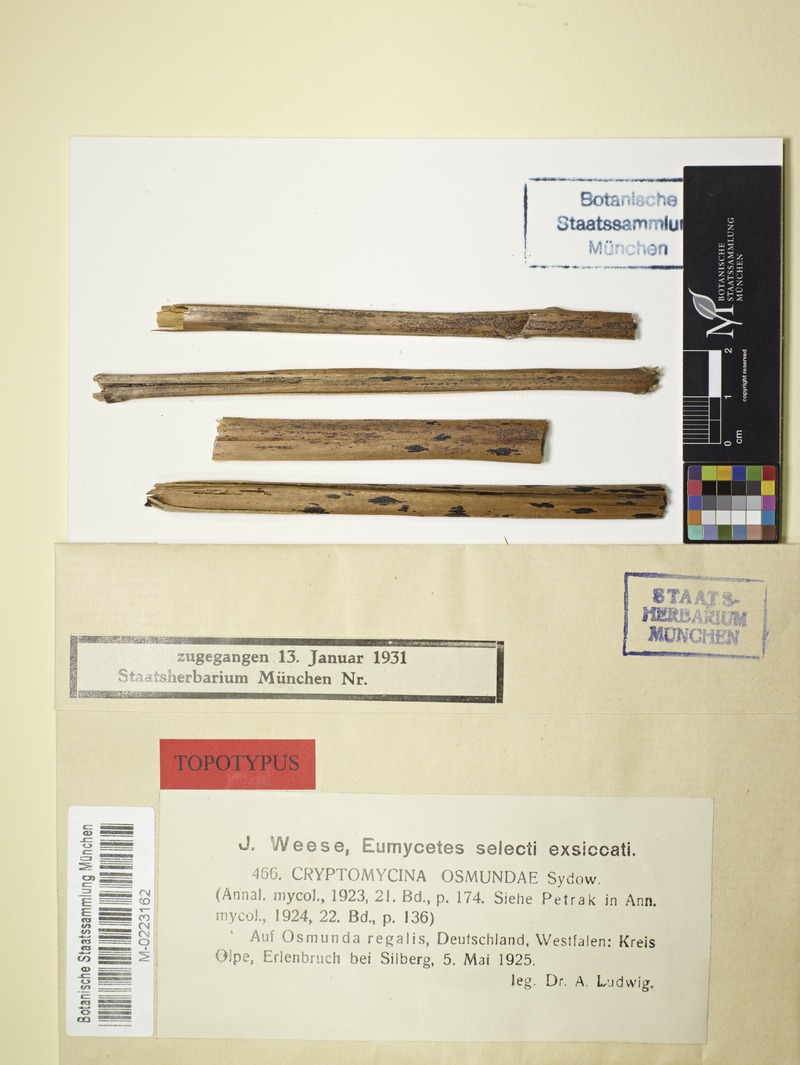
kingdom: Fungi
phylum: Ascomycota
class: Sordariomycetes
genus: Cryptomycina
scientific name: Cryptomycina filicina
